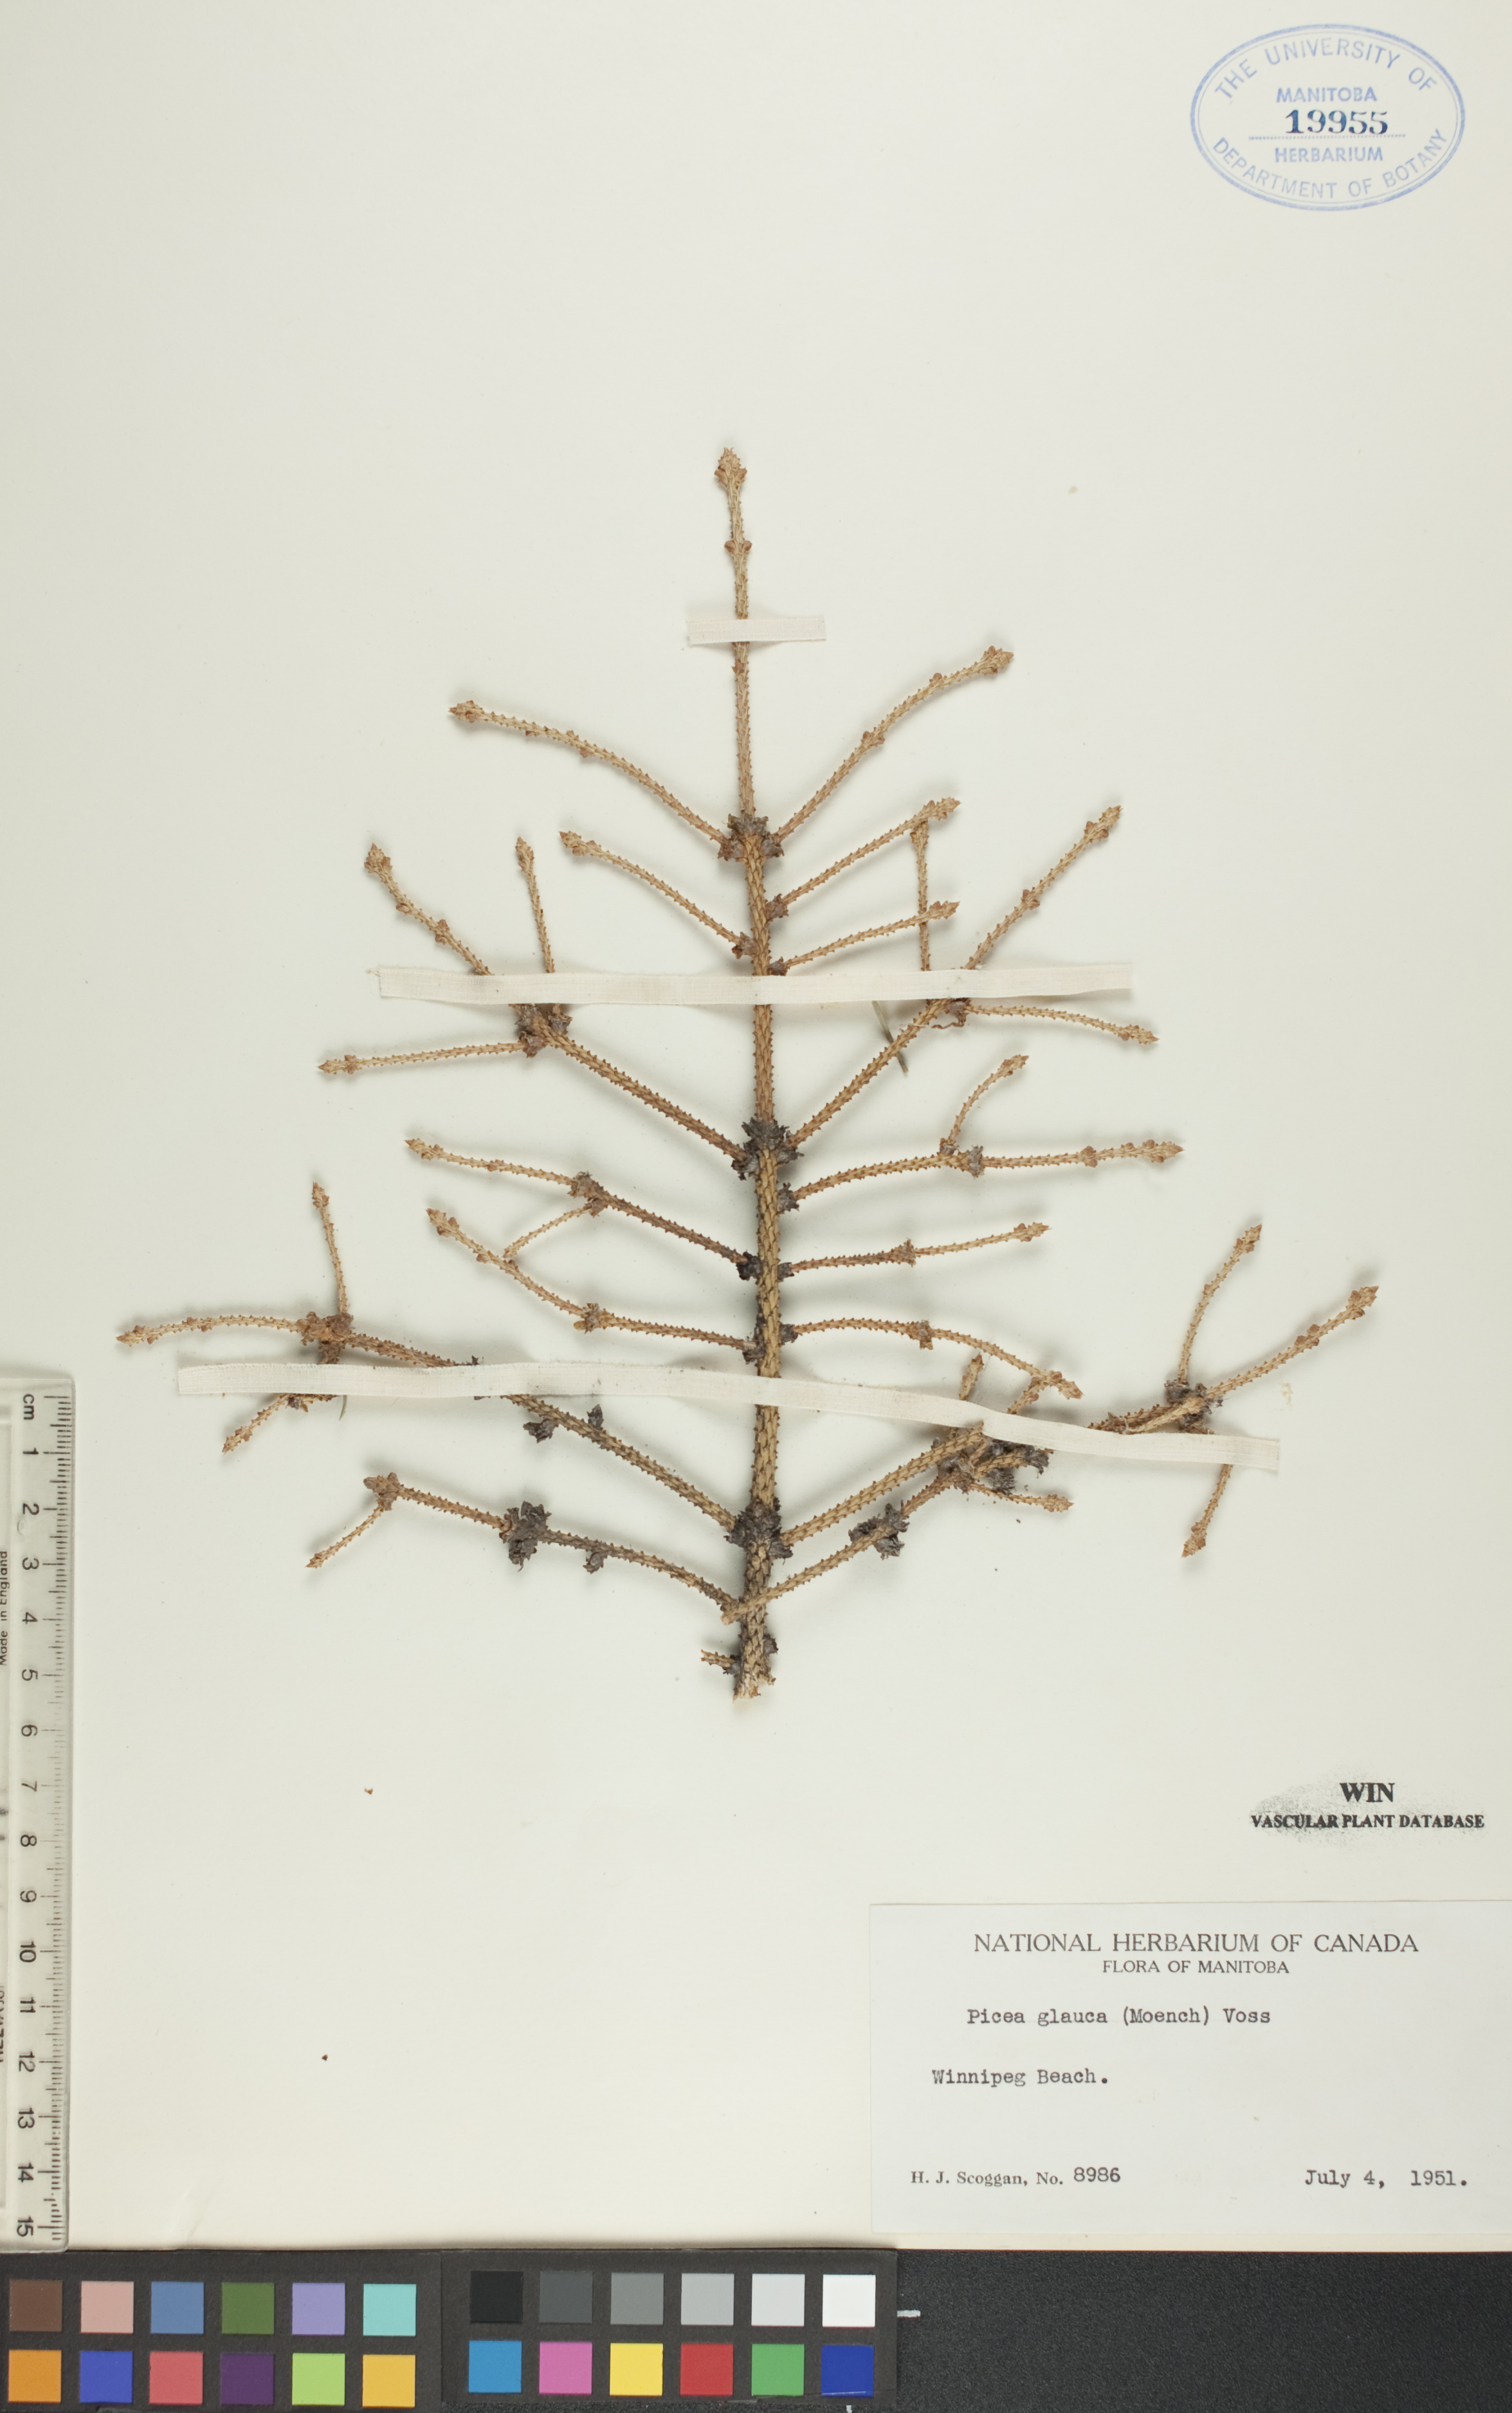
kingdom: Plantae
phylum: Tracheophyta
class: Pinopsida
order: Pinales
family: Pinaceae
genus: Picea
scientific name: Picea glauca
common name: White spruce
